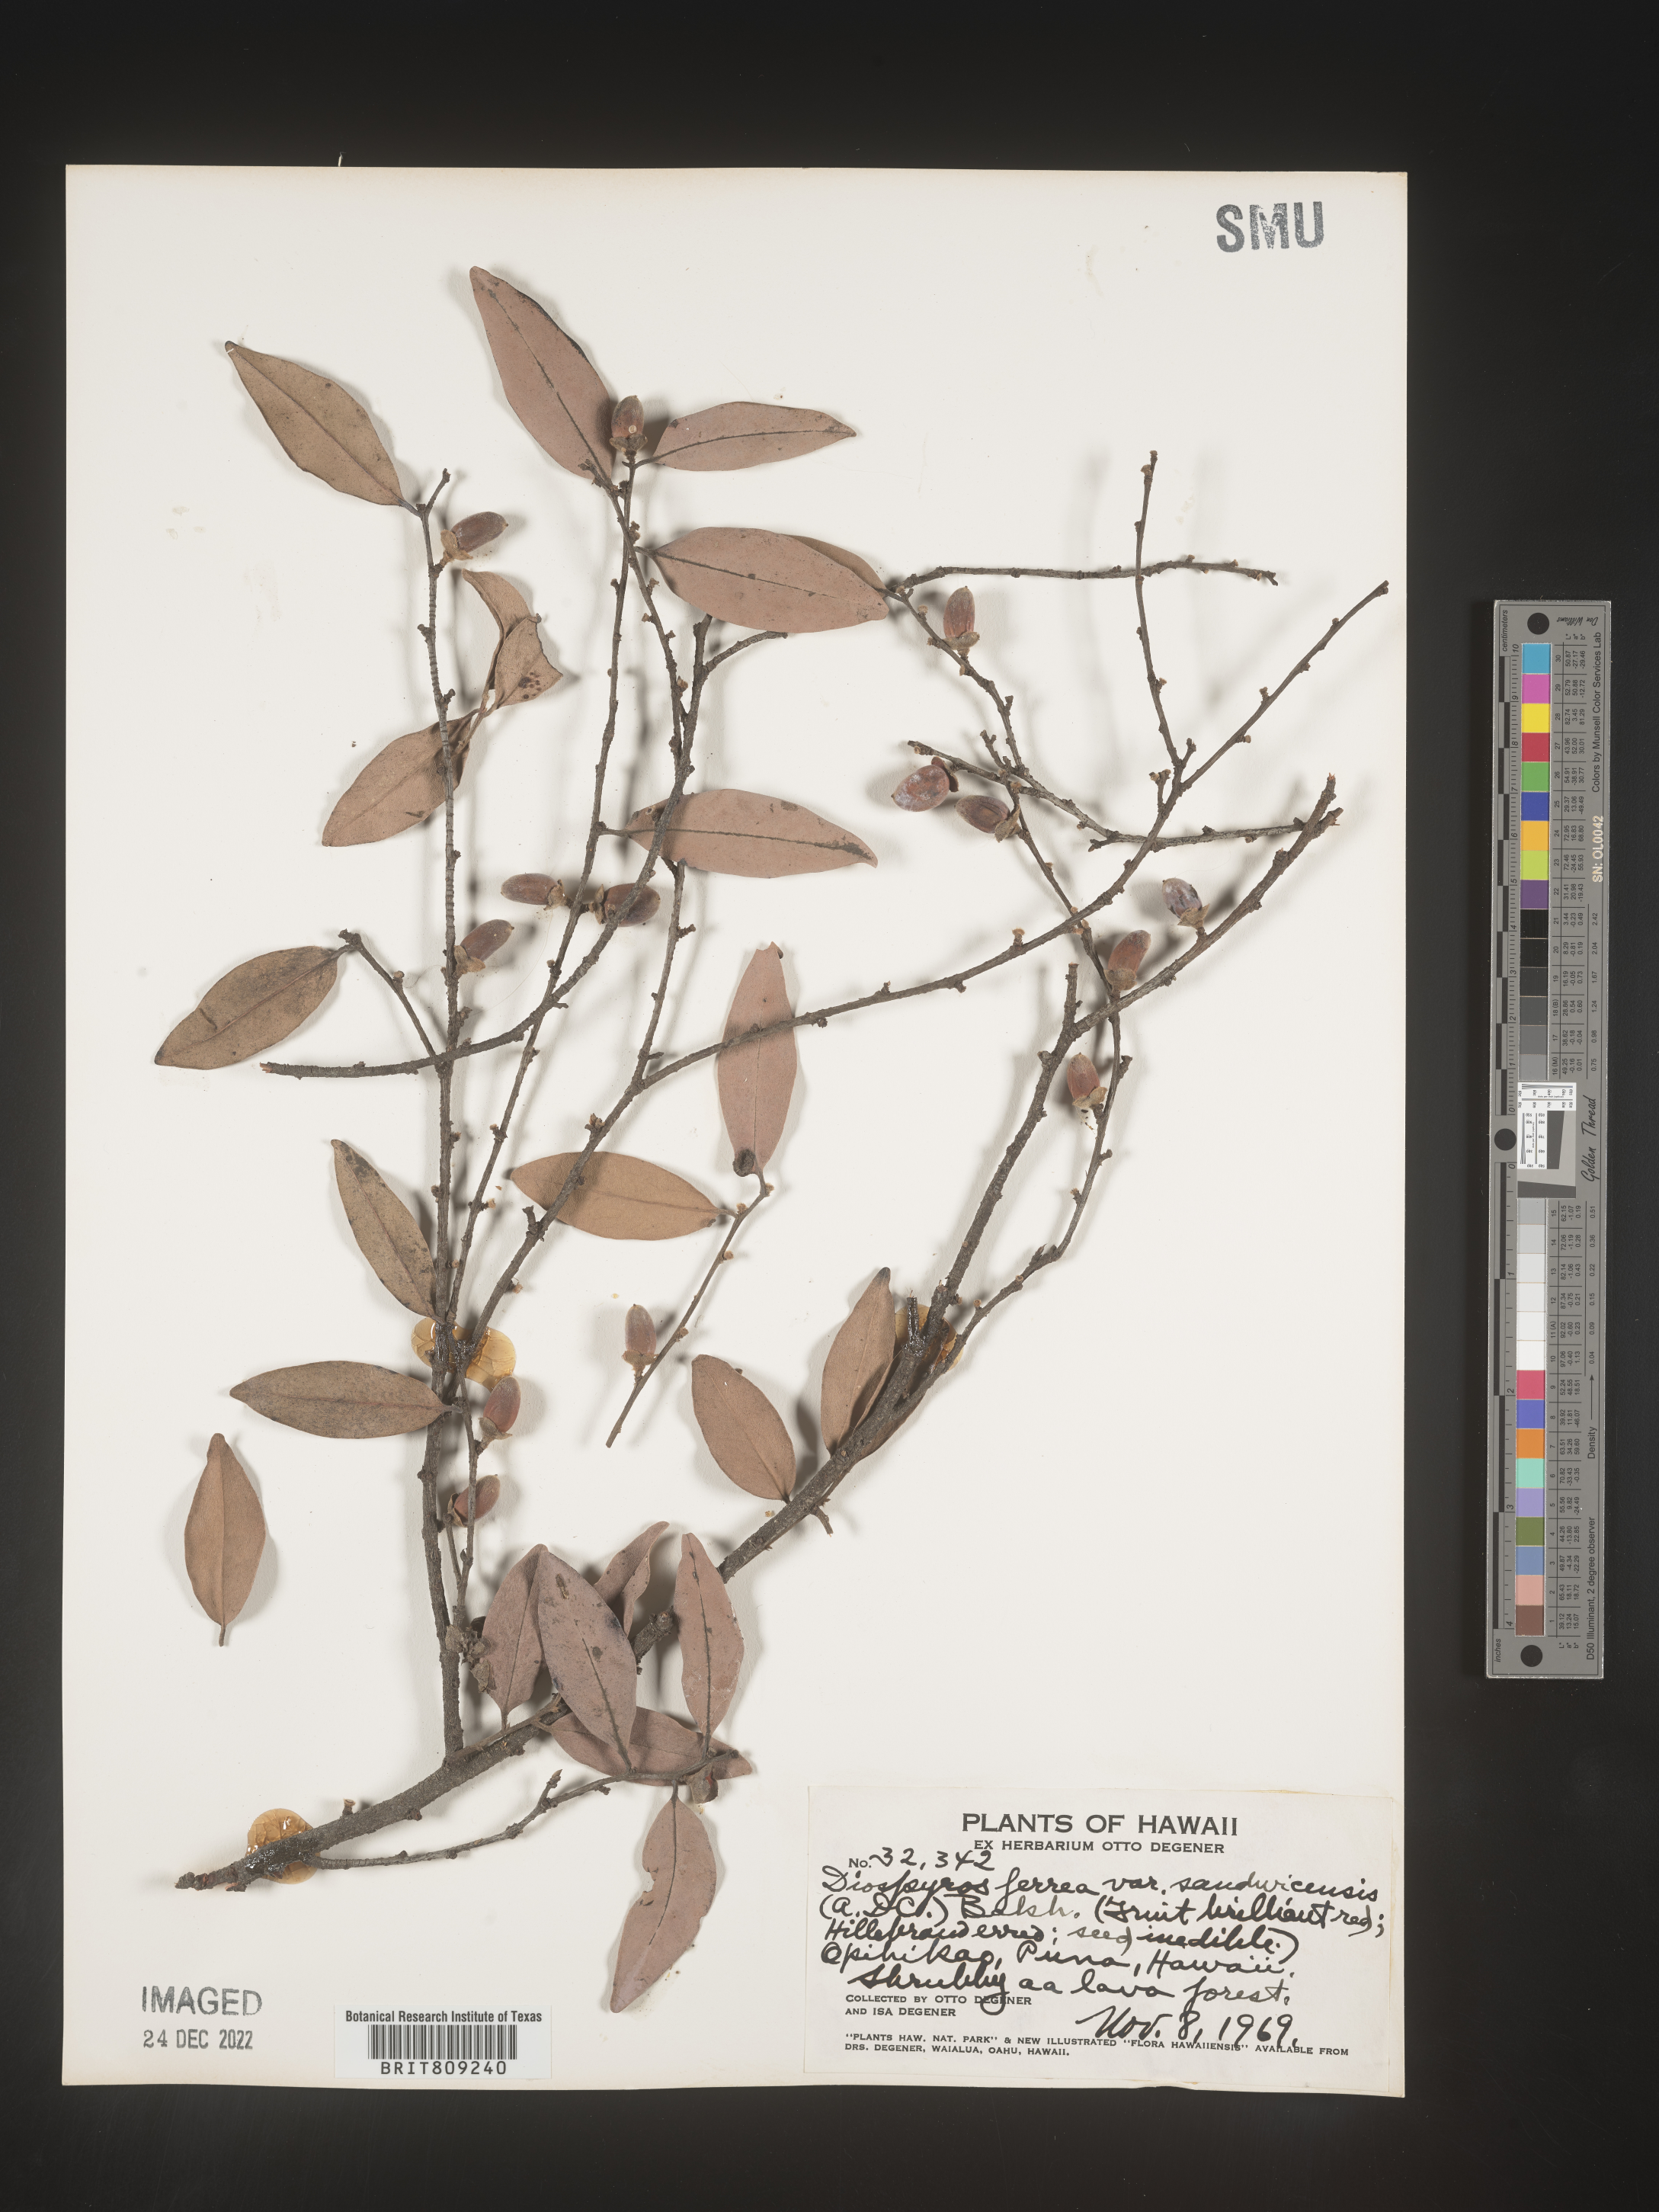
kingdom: Plantae
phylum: Tracheophyta
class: Magnoliopsida
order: Ericales
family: Ebenaceae
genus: Diospyros
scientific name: Diospyros
